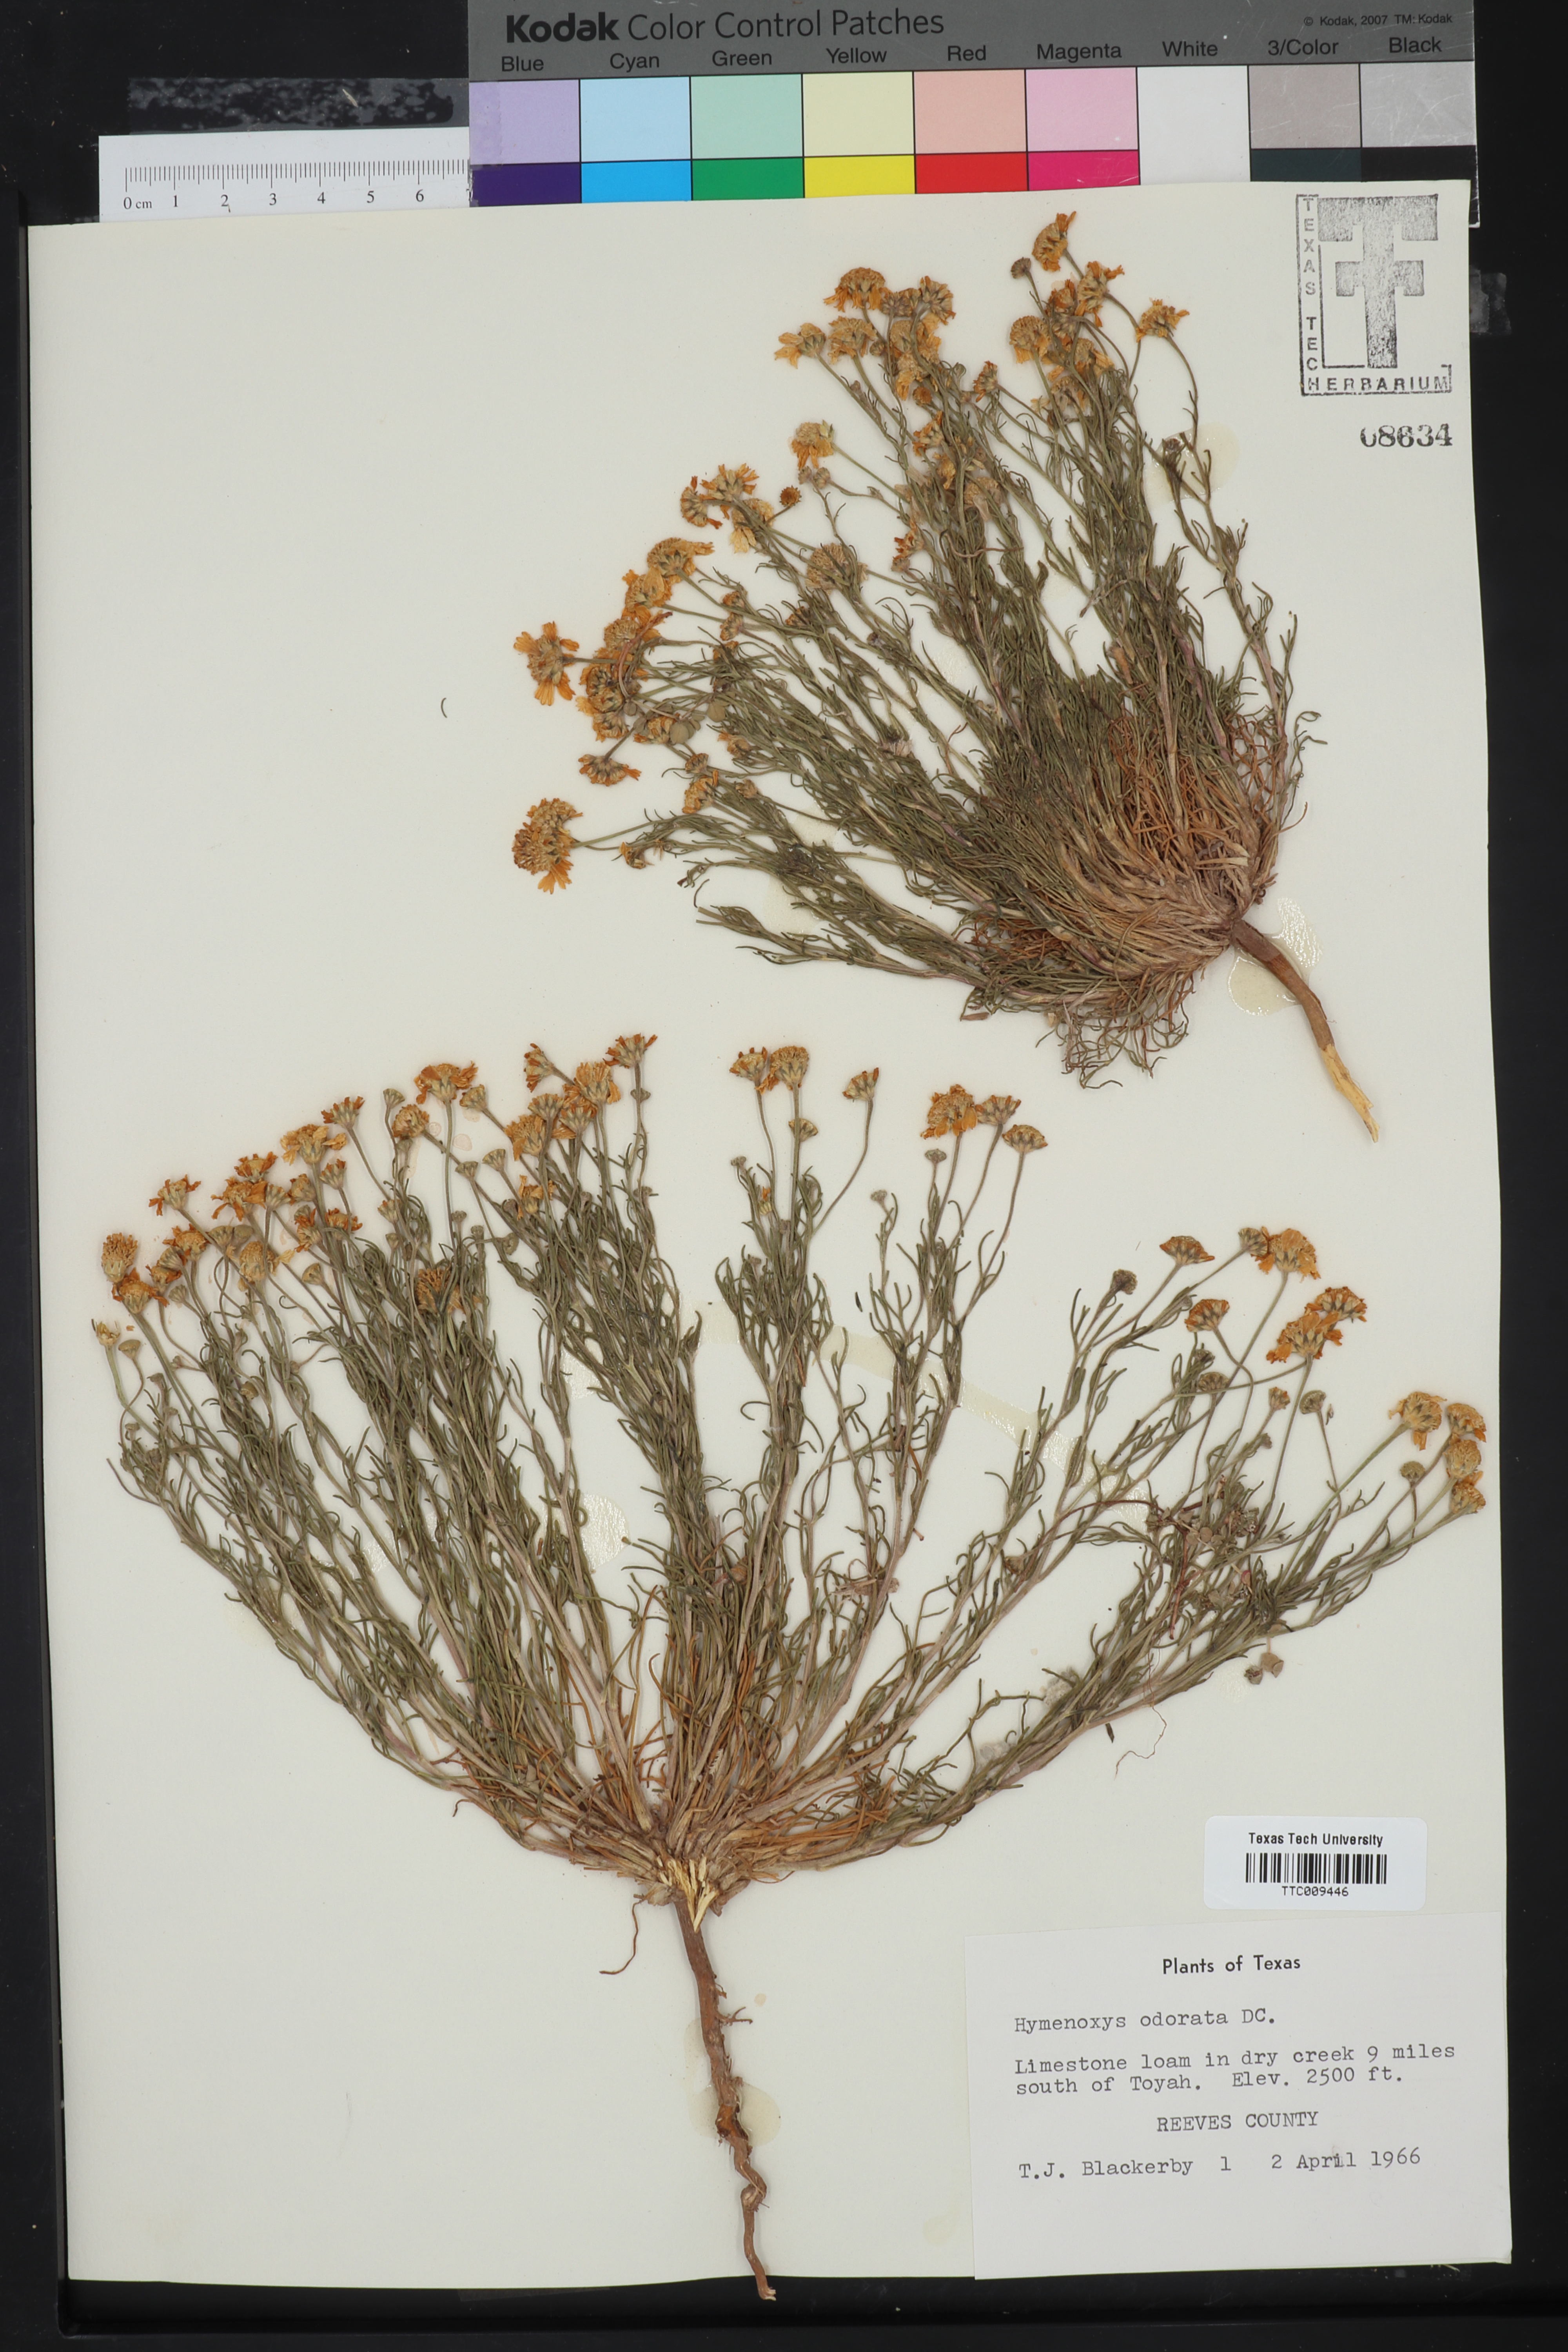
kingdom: Plantae
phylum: Tracheophyta
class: Magnoliopsida
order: Asterales
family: Asteraceae
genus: Hymenoxys
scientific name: Hymenoxys odorata
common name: Bitter rubberweed
